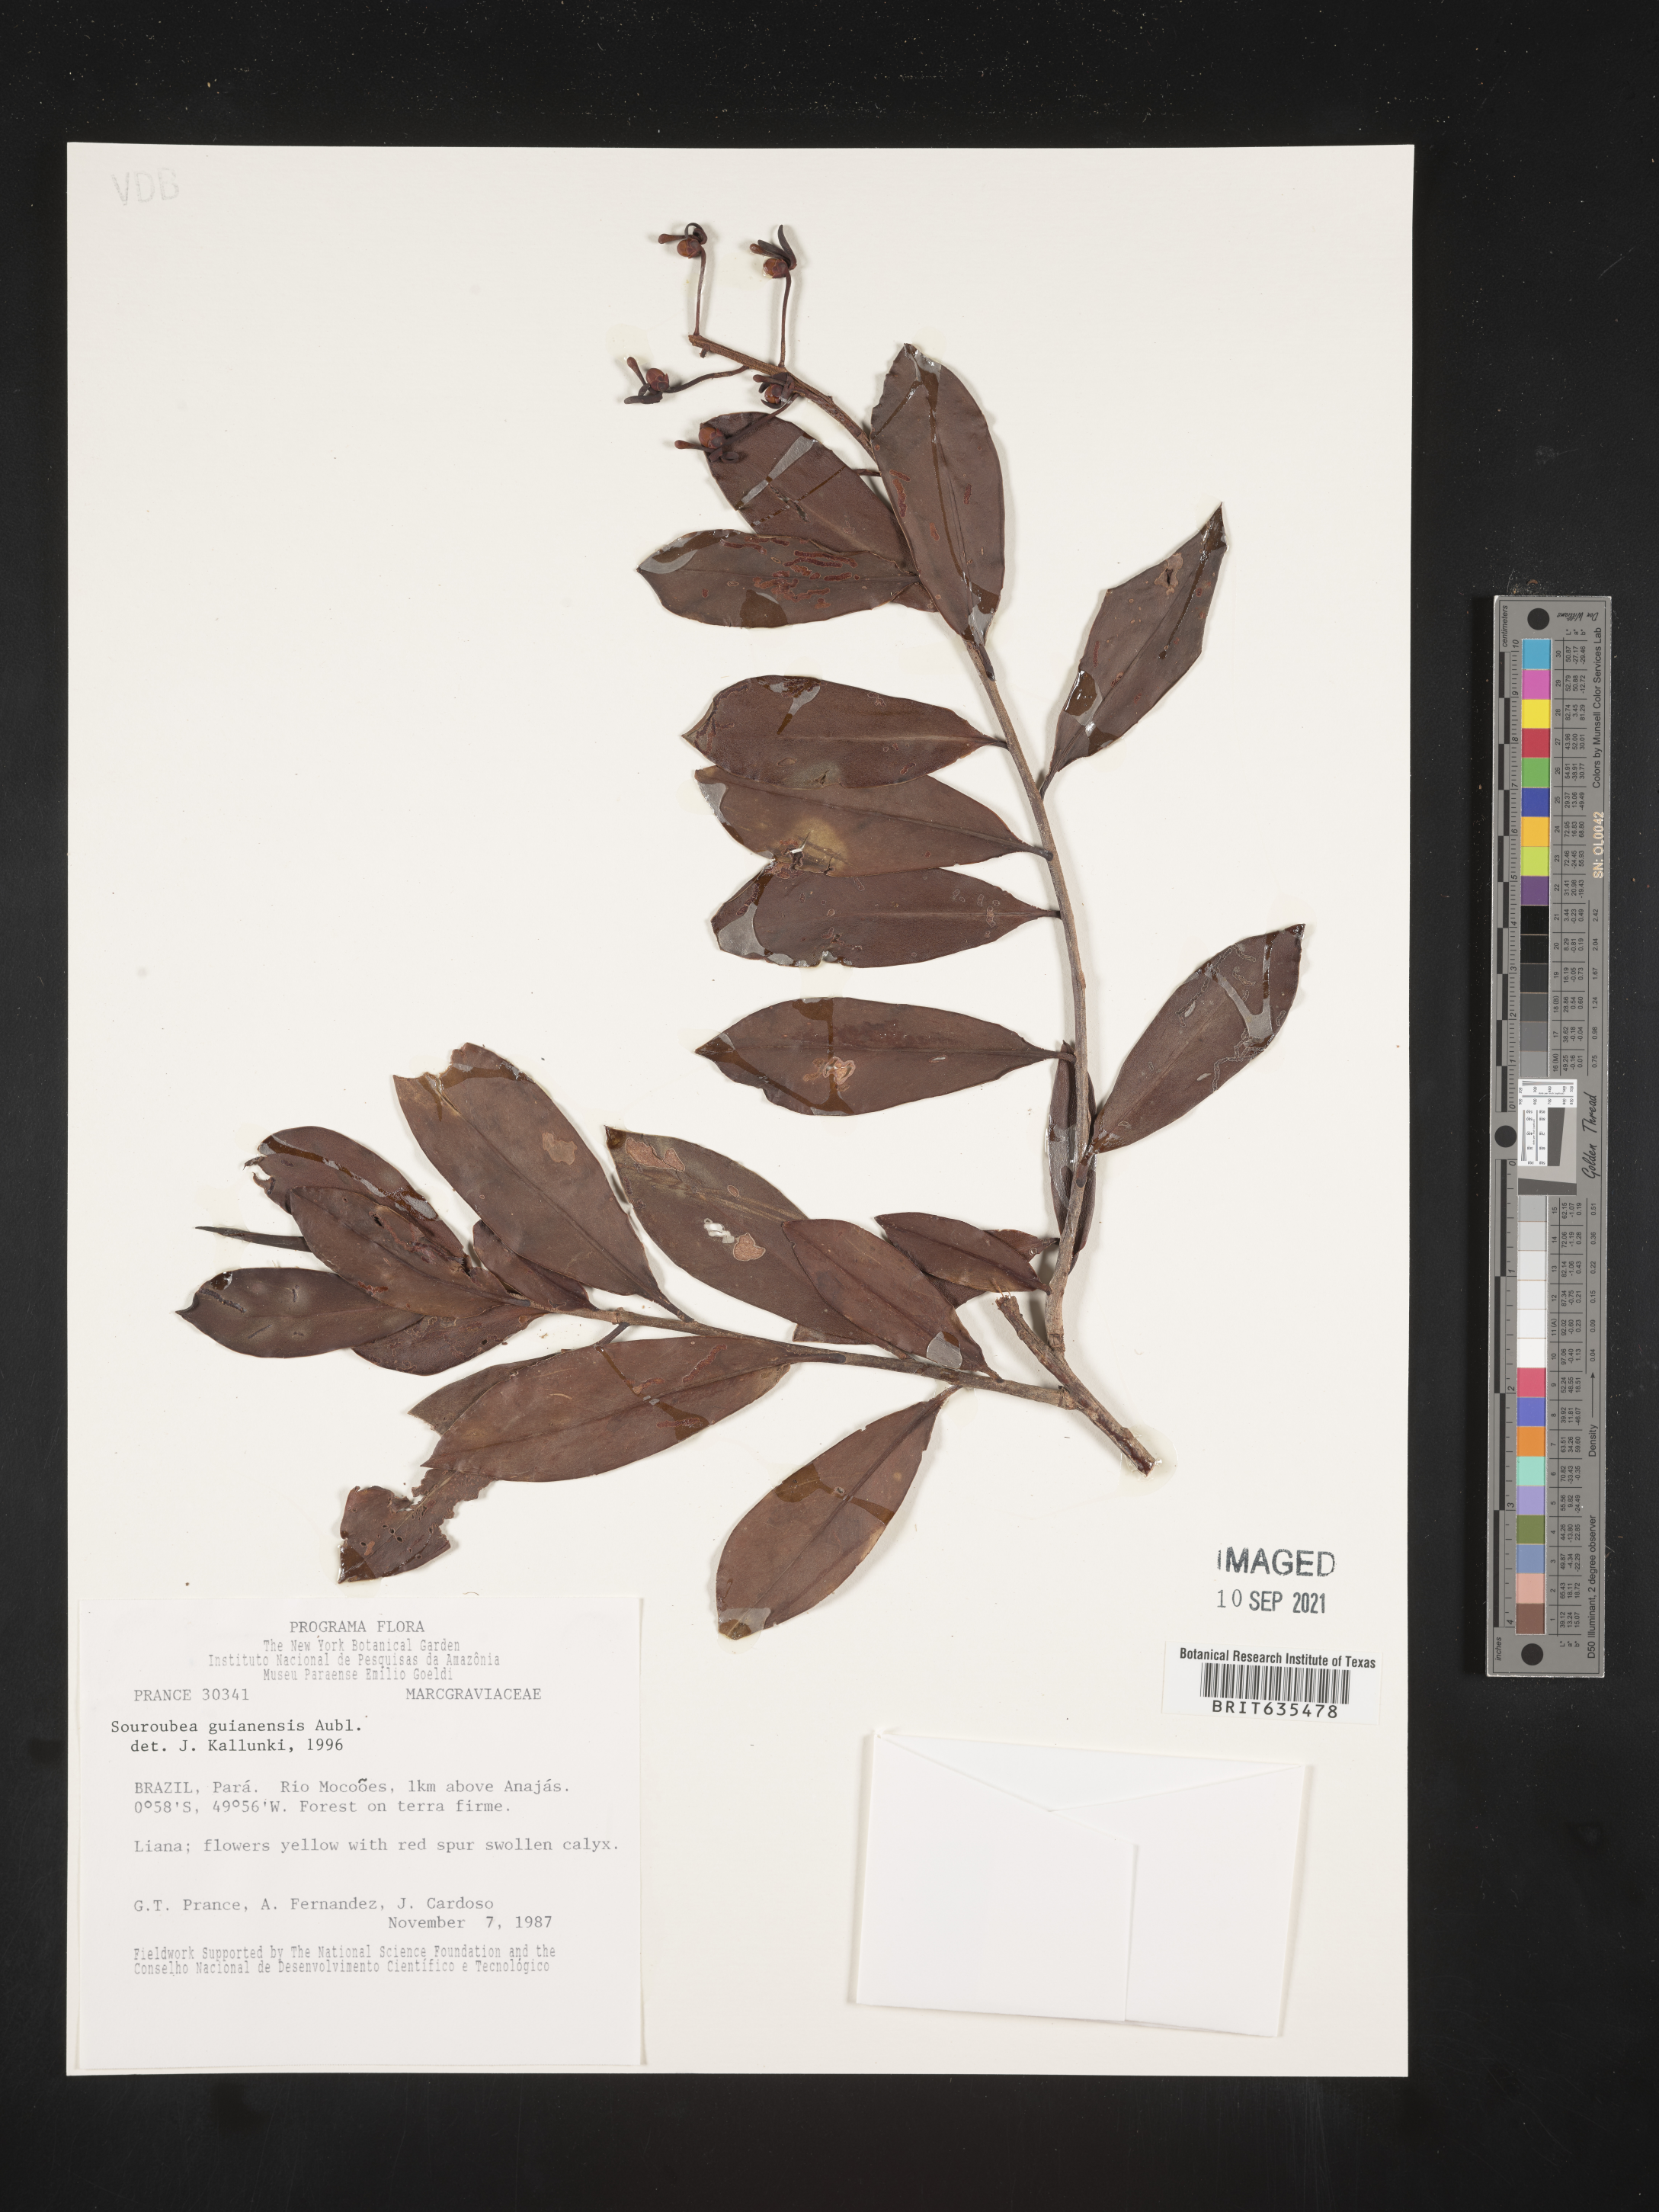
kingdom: Plantae
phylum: Tracheophyta
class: Magnoliopsida
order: Ericales
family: Marcgraviaceae
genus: Marcgravia
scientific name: Marcgravia
